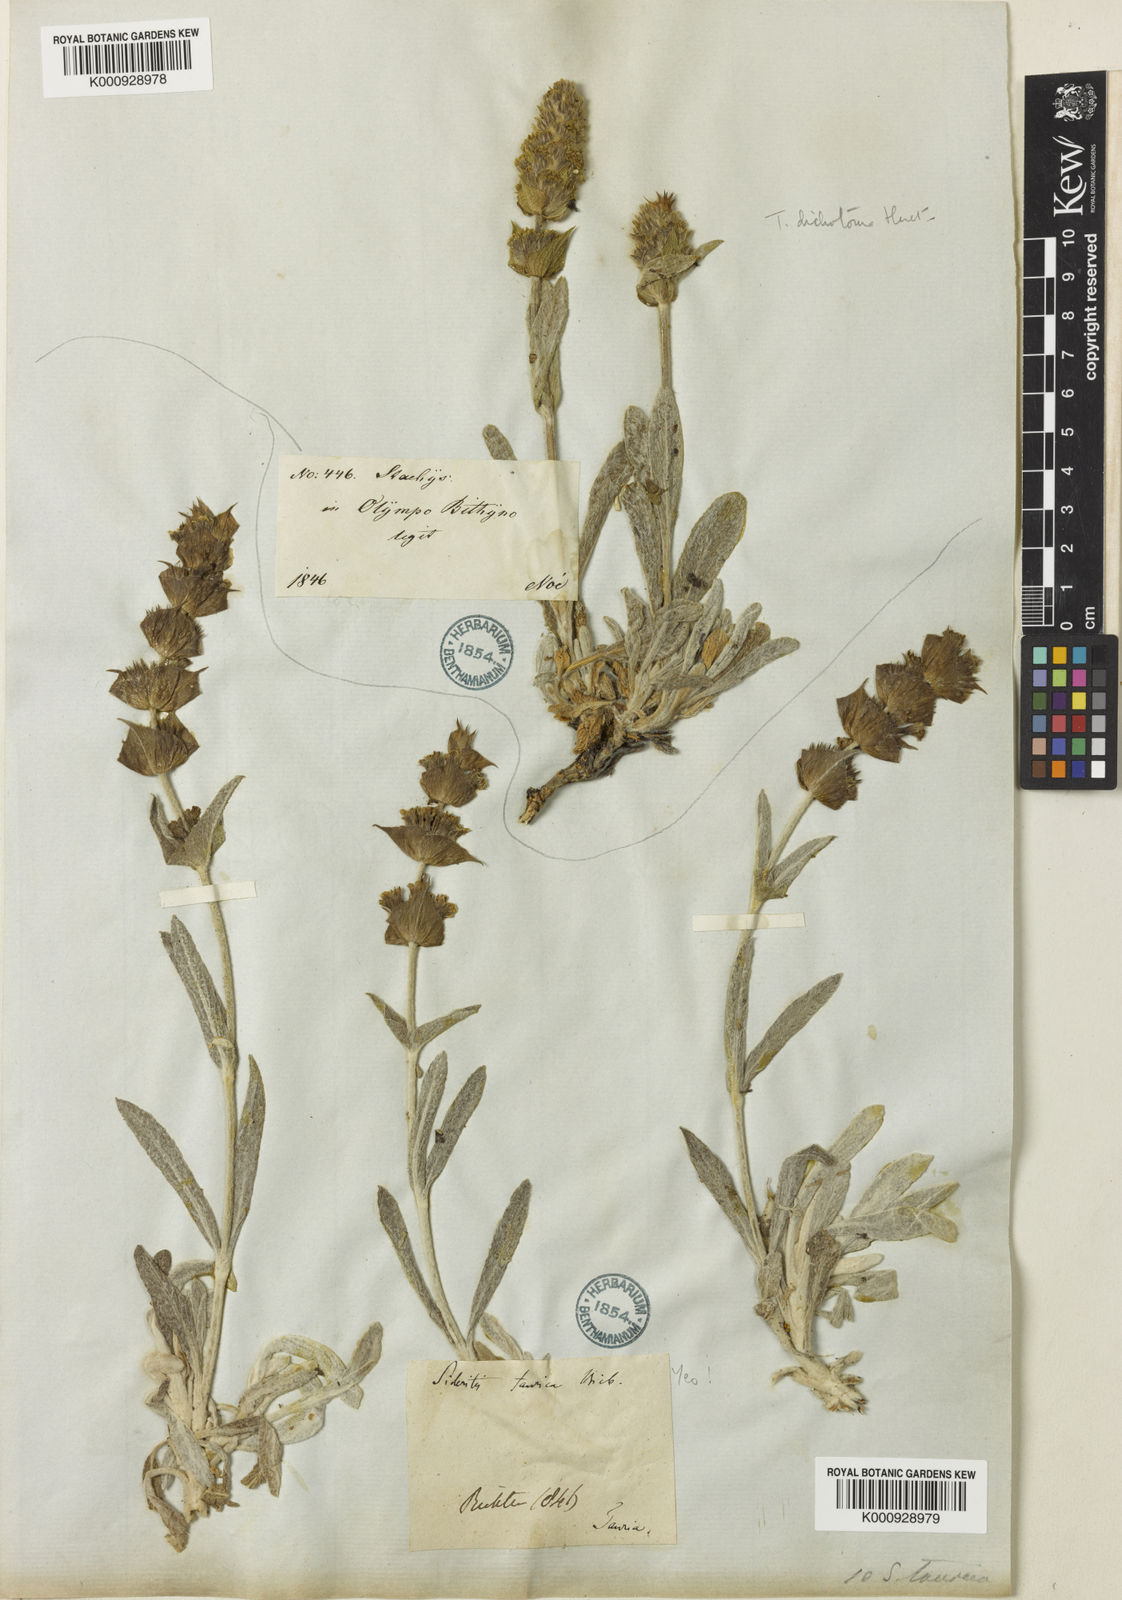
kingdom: Plantae
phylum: Tracheophyta
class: Magnoliopsida
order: Lamiales
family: Lamiaceae
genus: Sideritis
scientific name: Sideritis pisidica
